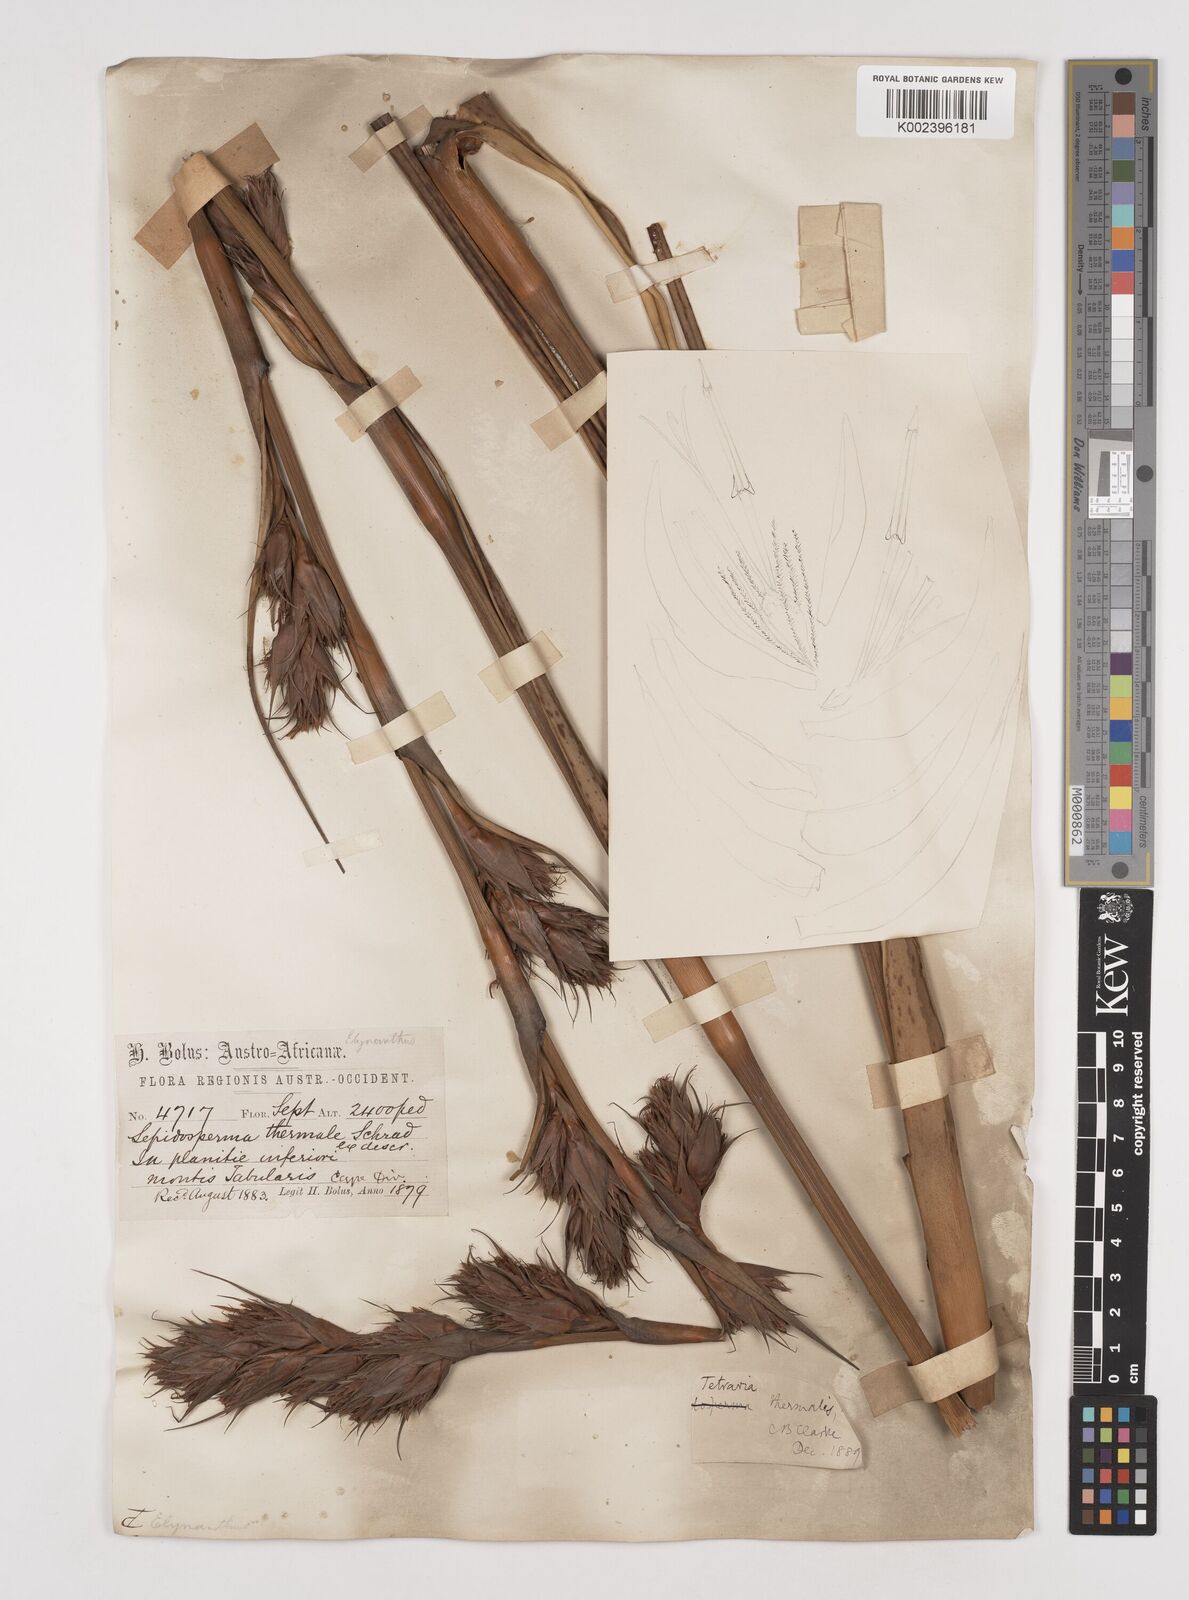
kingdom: Plantae
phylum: Tracheophyta
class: Liliopsida
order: Poales
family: Cyperaceae
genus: Tetraria
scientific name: Tetraria thermalis
